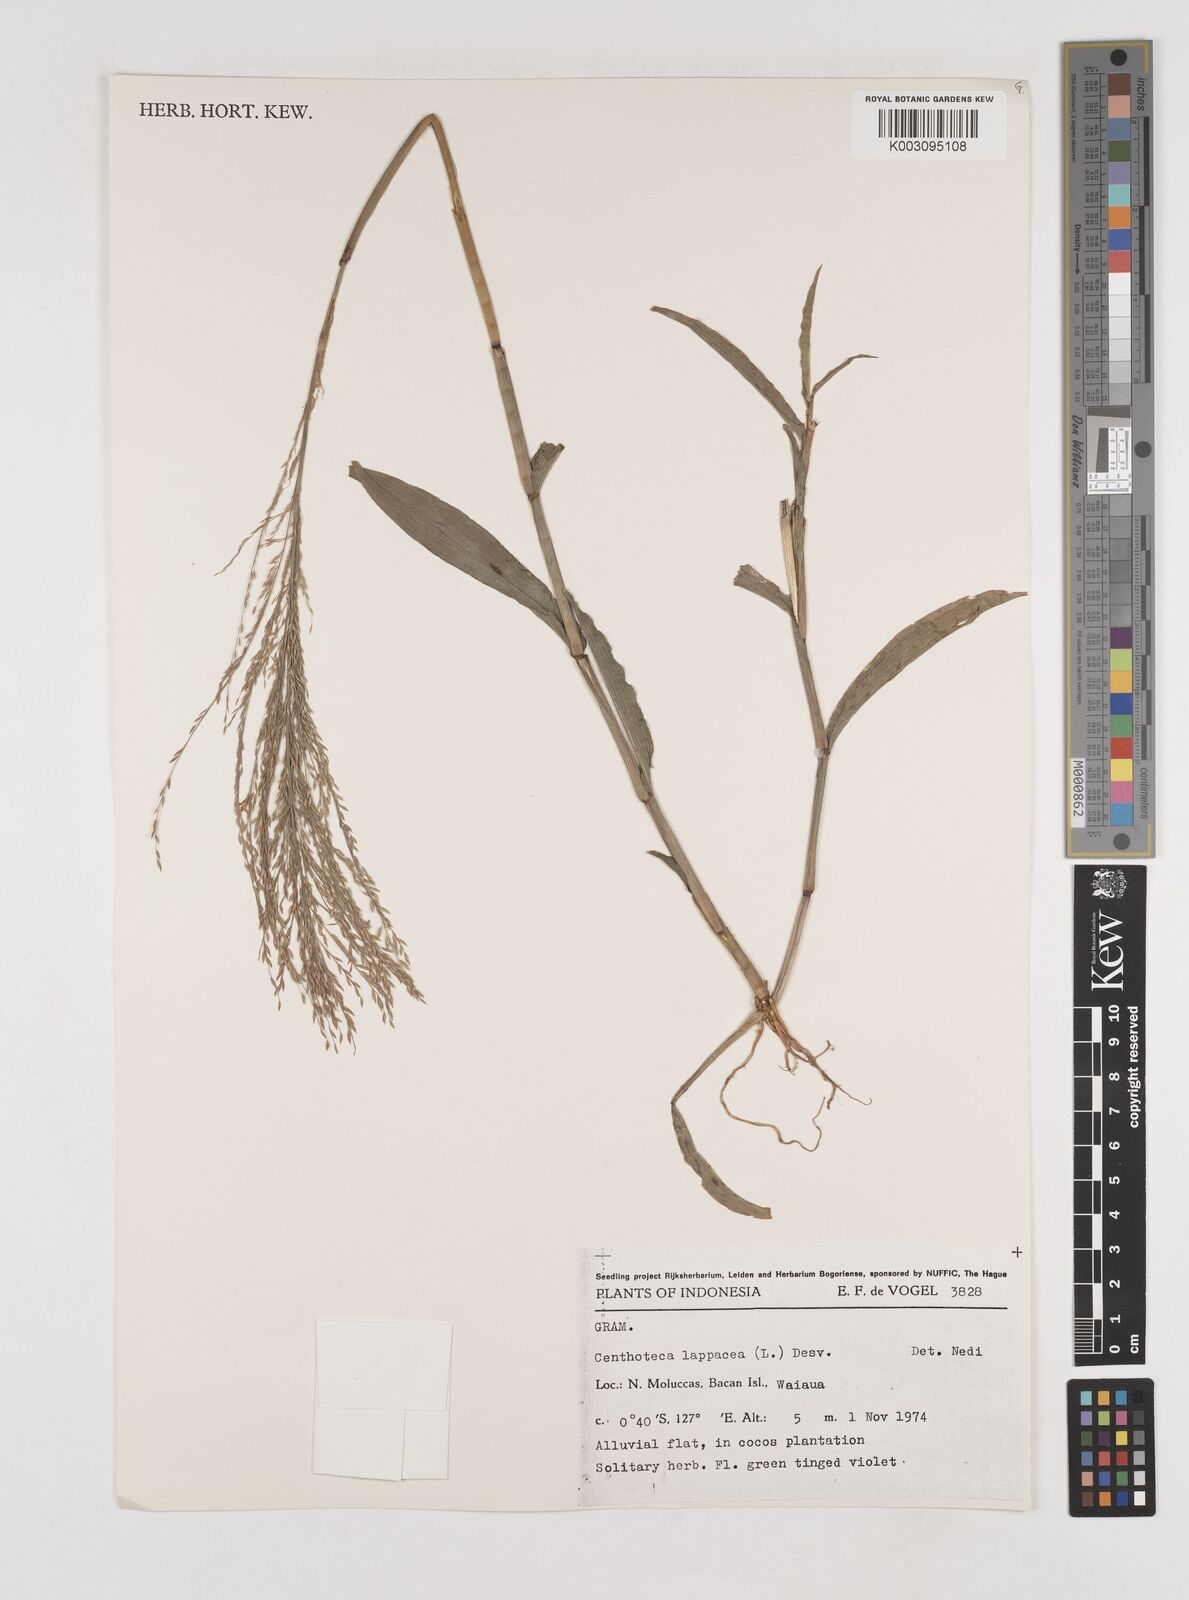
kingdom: Plantae
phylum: Tracheophyta
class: Liliopsida
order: Poales
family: Poaceae
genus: Centotheca
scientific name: Centotheca lappacea
